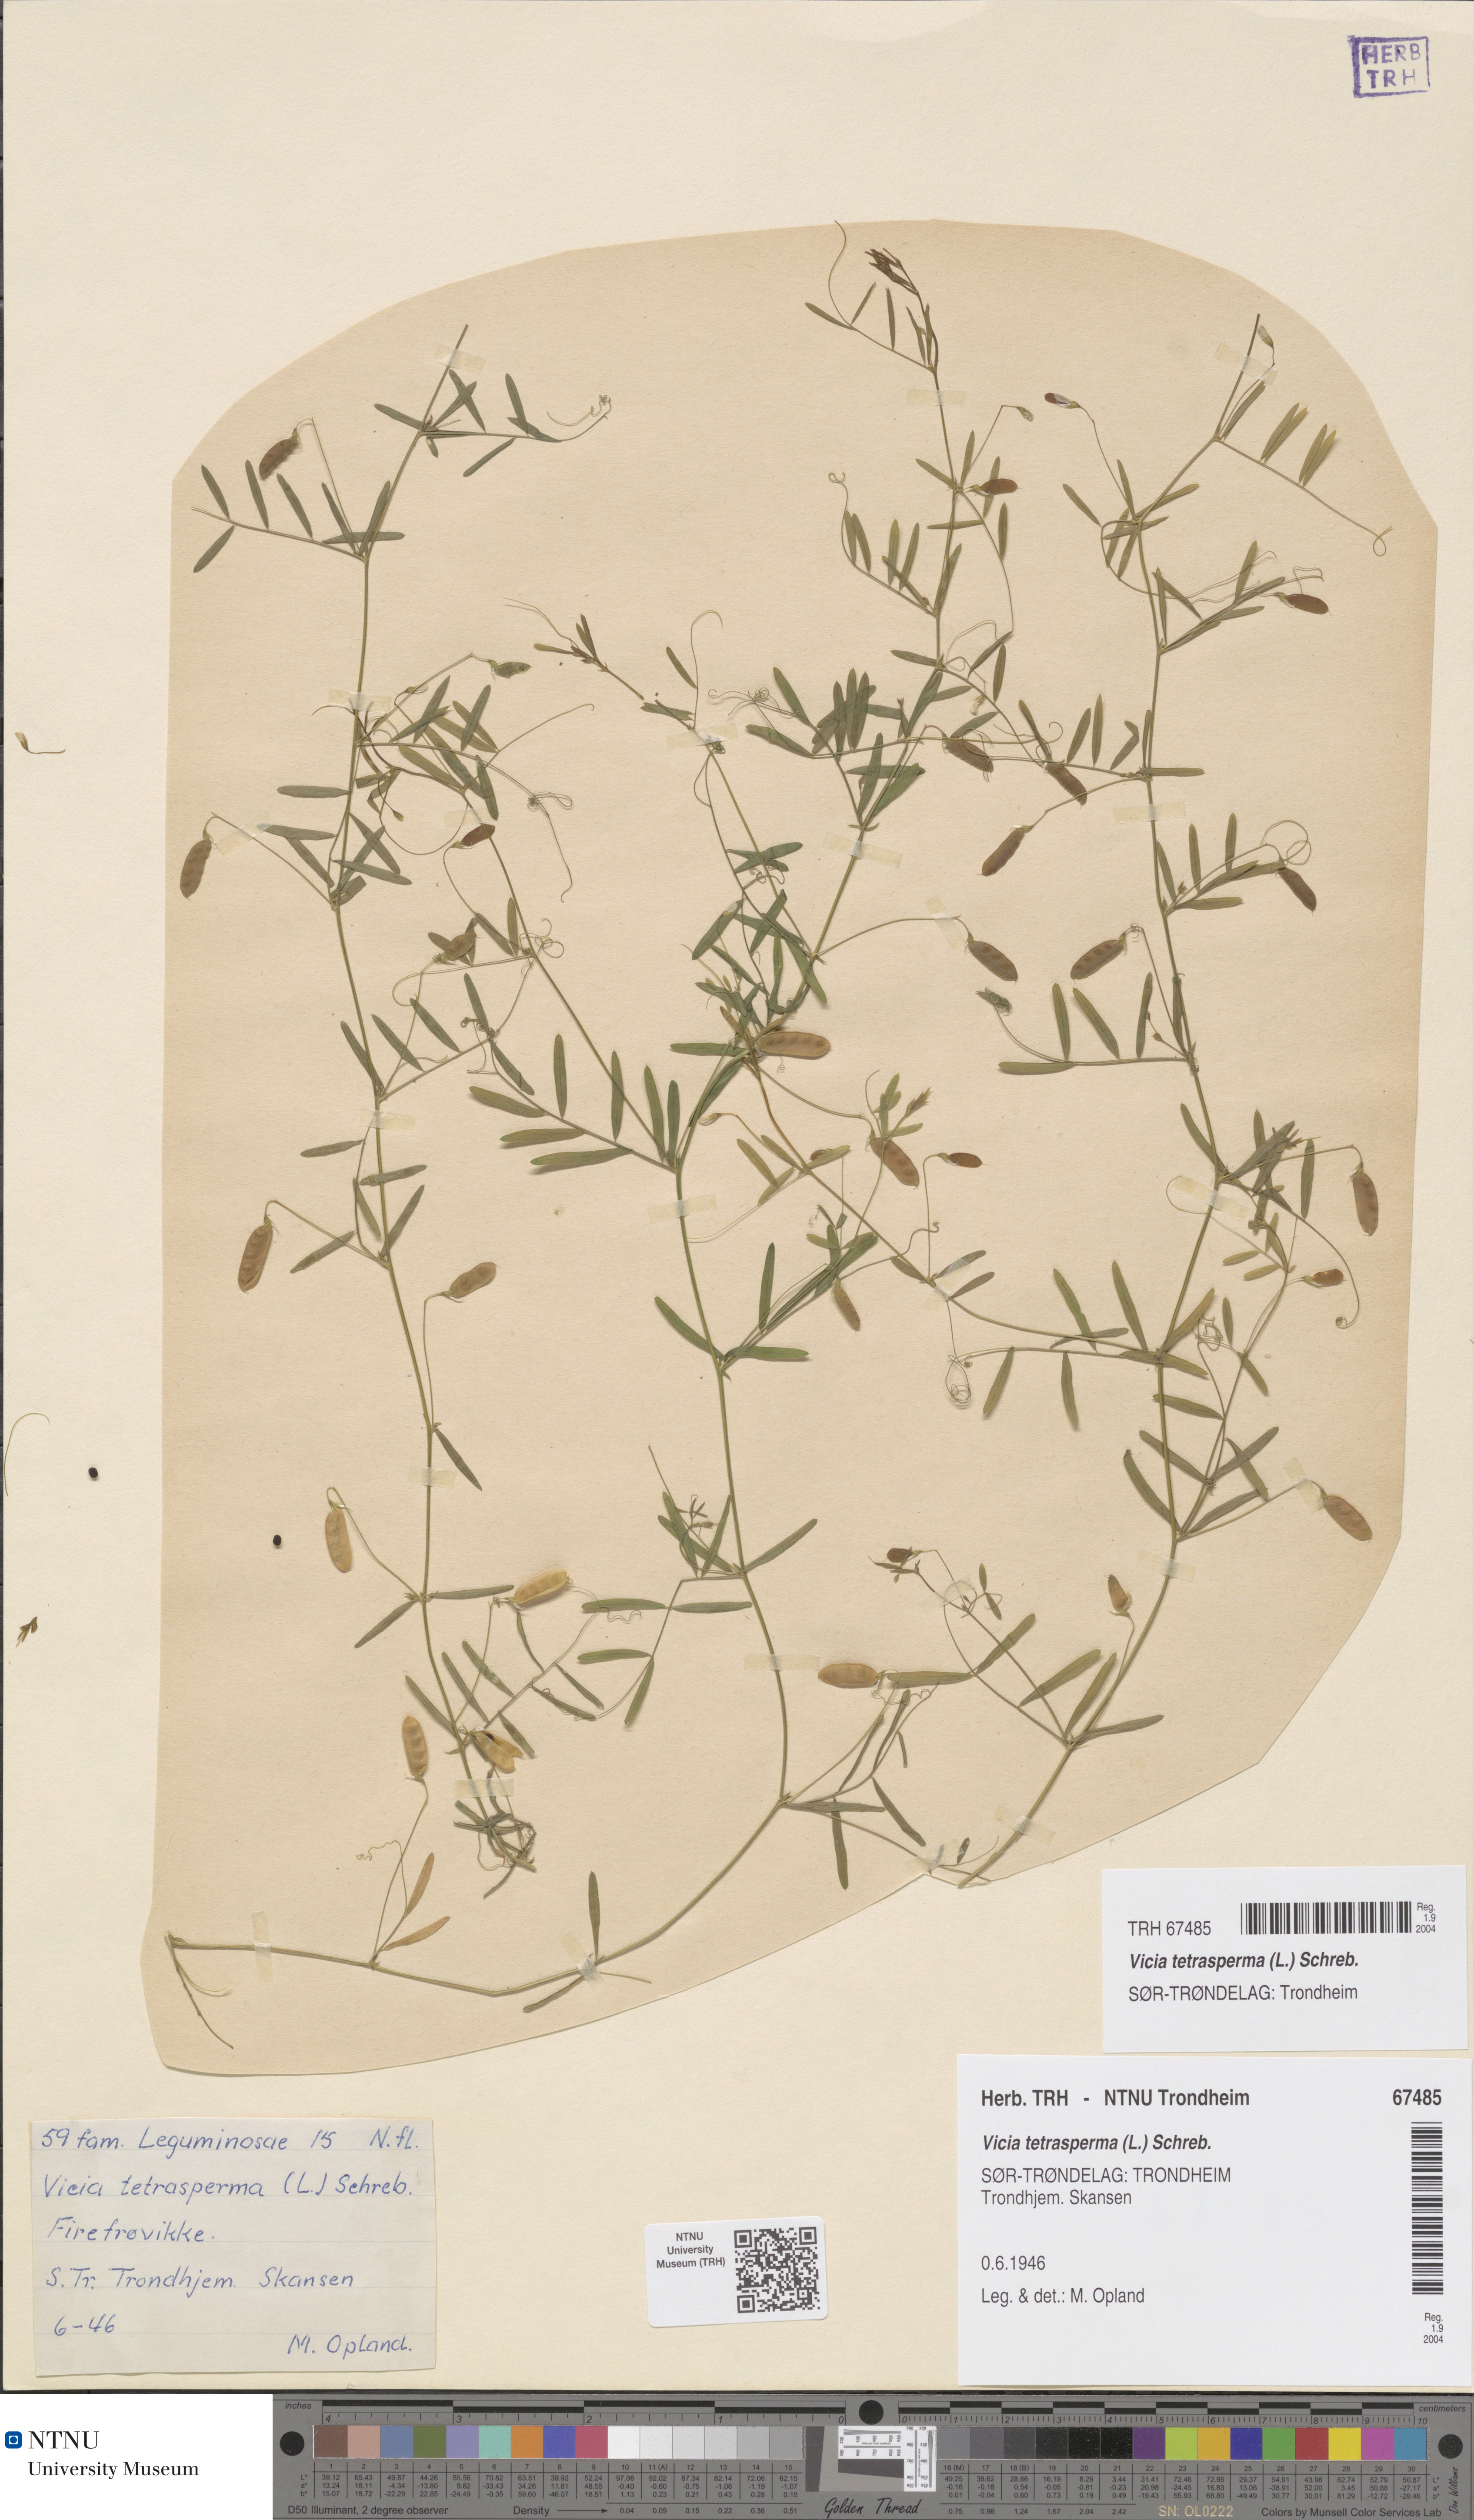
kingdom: Plantae
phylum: Tracheophyta
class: Magnoliopsida
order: Fabales
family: Fabaceae
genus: Vicia
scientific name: Vicia tetrasperma
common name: Smooth tare
